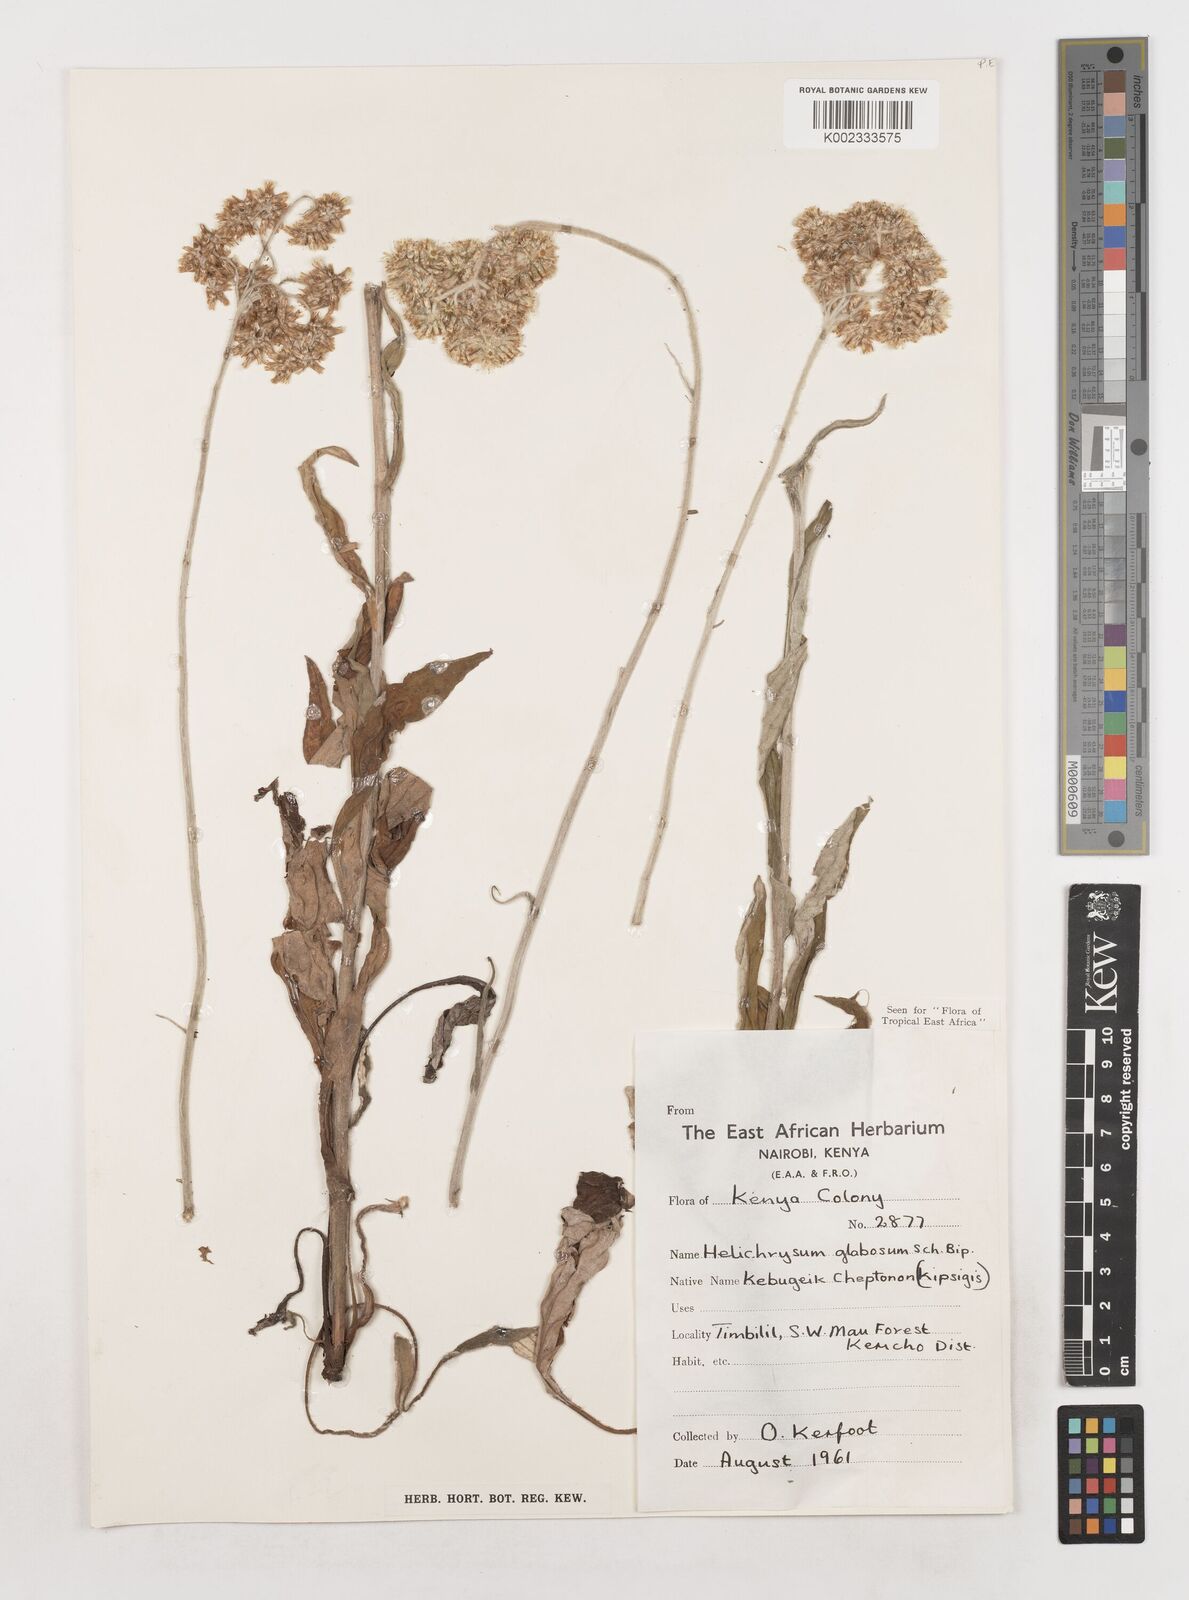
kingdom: Plantae
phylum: Tracheophyta
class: Magnoliopsida
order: Asterales
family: Asteraceae
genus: Helichrysum
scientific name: Helichrysum globosum
